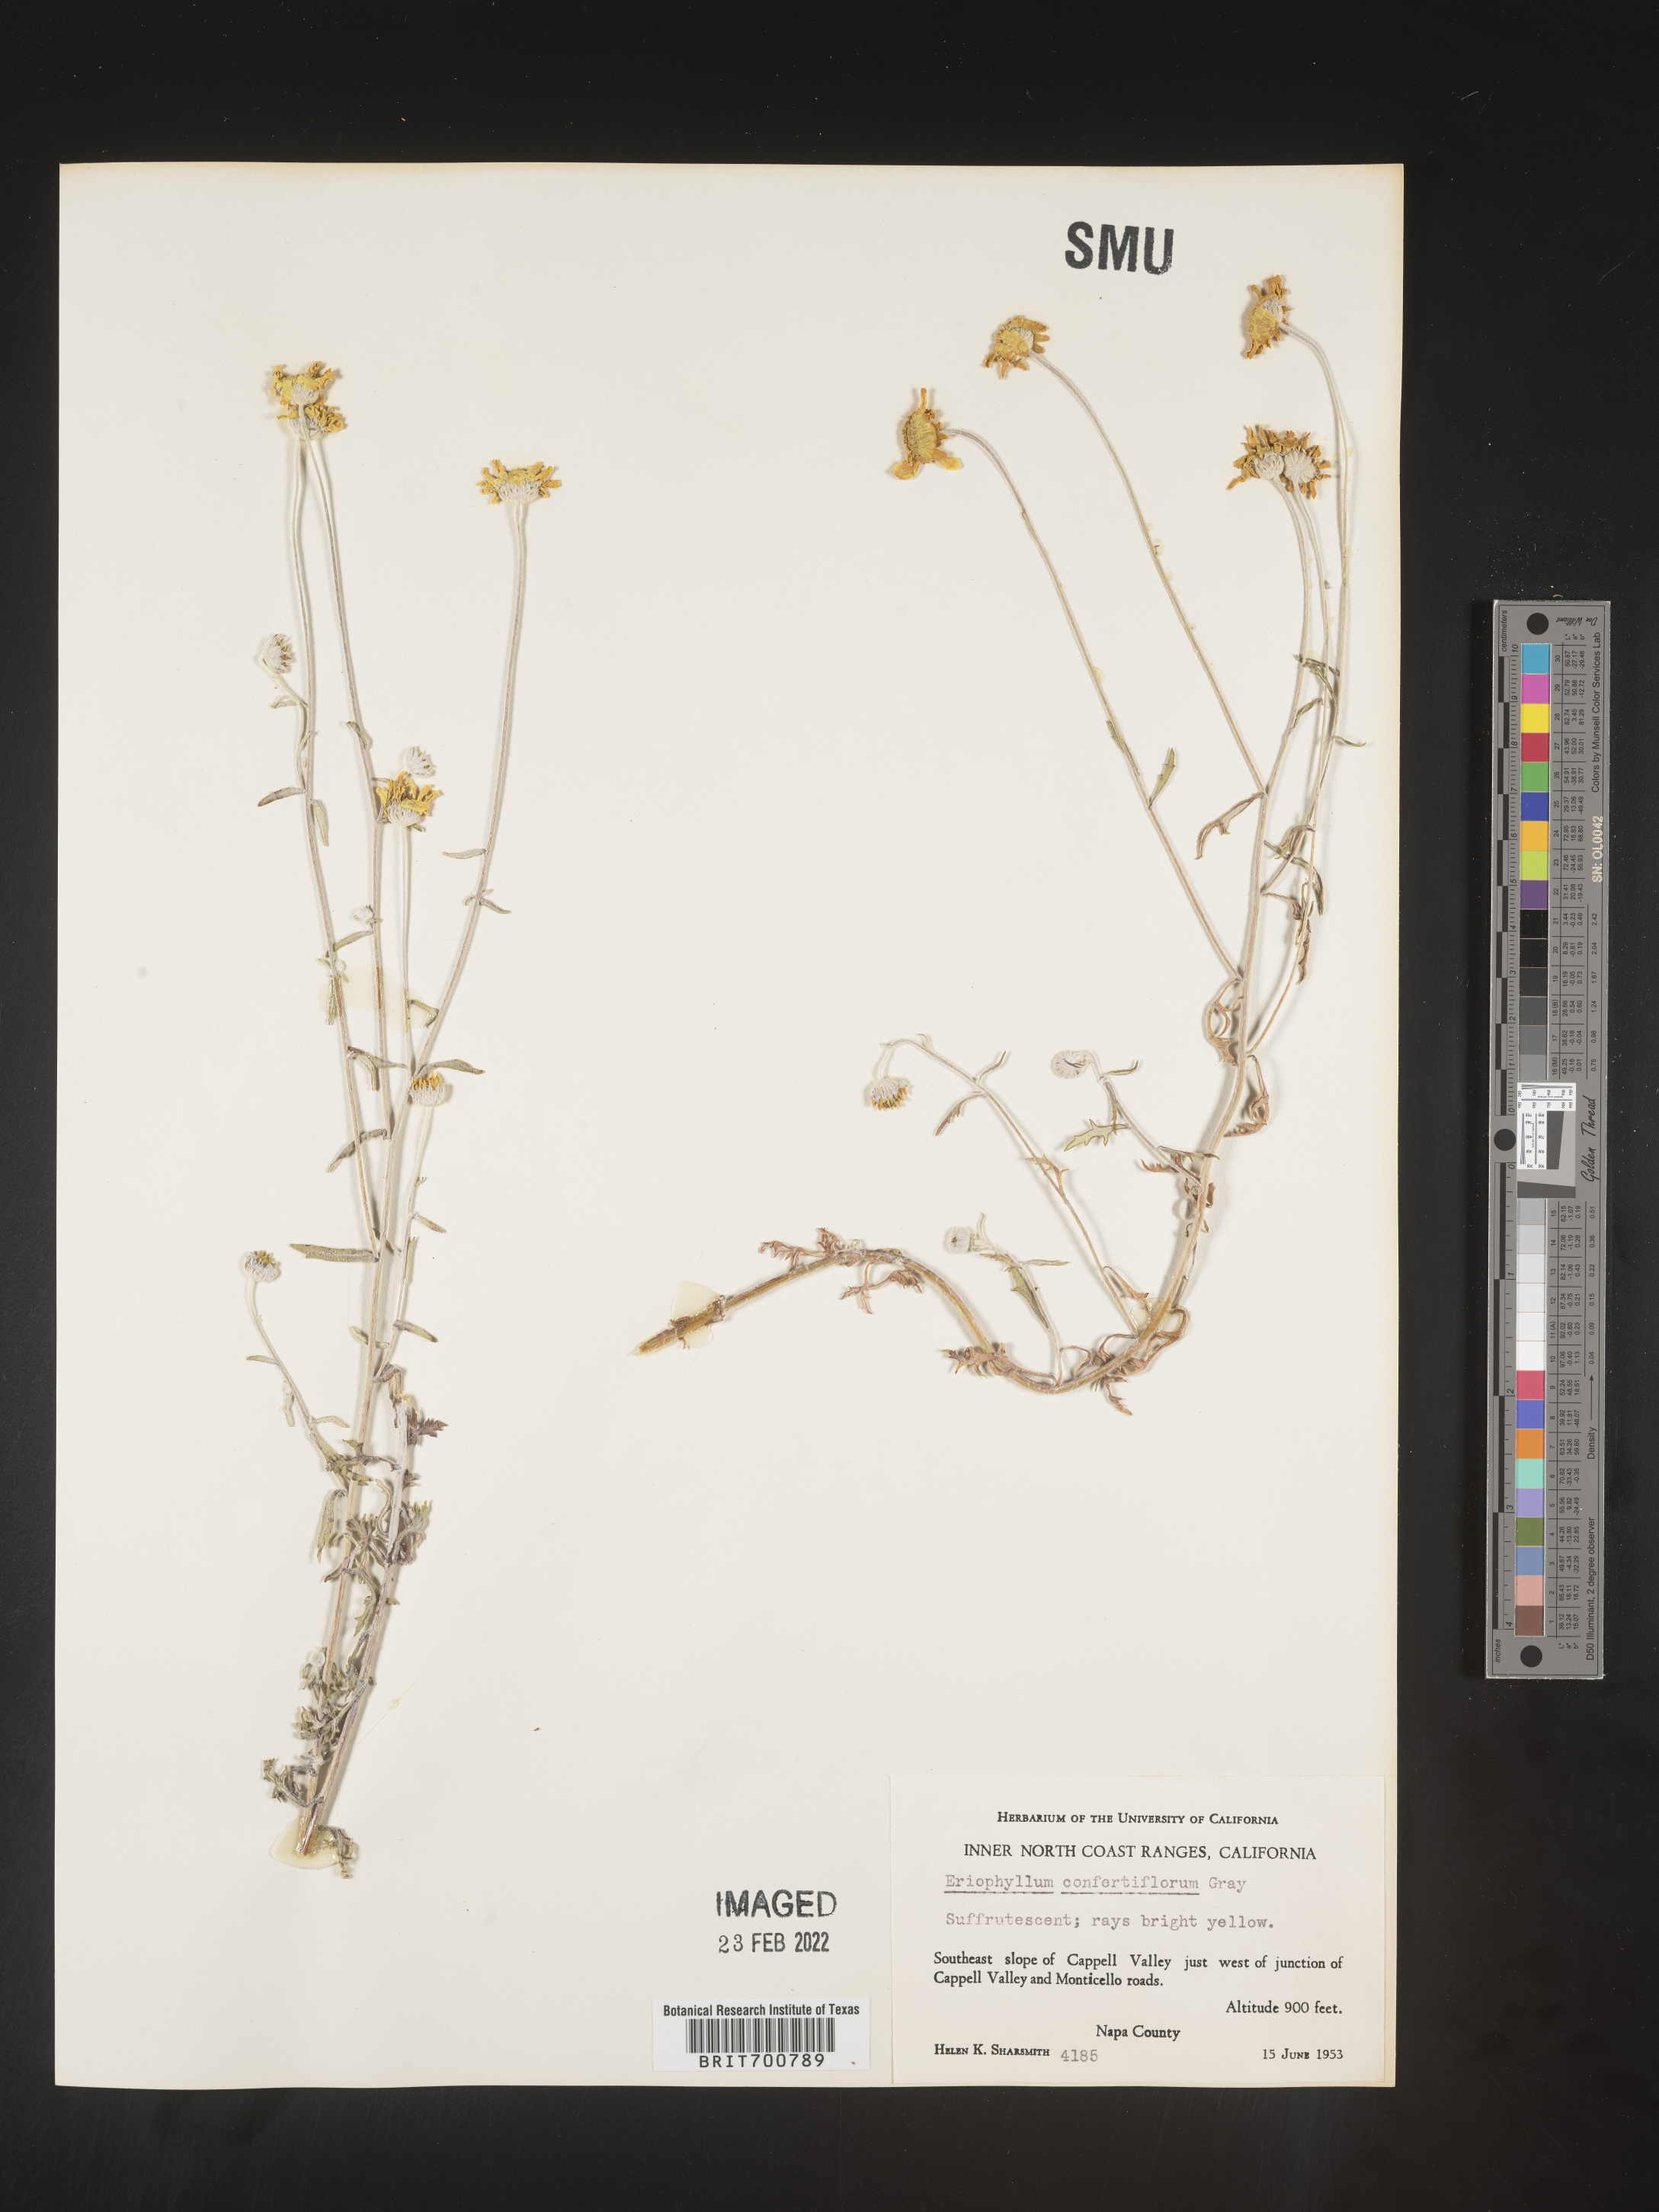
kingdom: Plantae
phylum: Tracheophyta
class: Magnoliopsida
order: Asterales
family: Asteraceae
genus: Eriophyllum
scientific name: Eriophyllum confertiflorum
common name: Golden-yarrow
